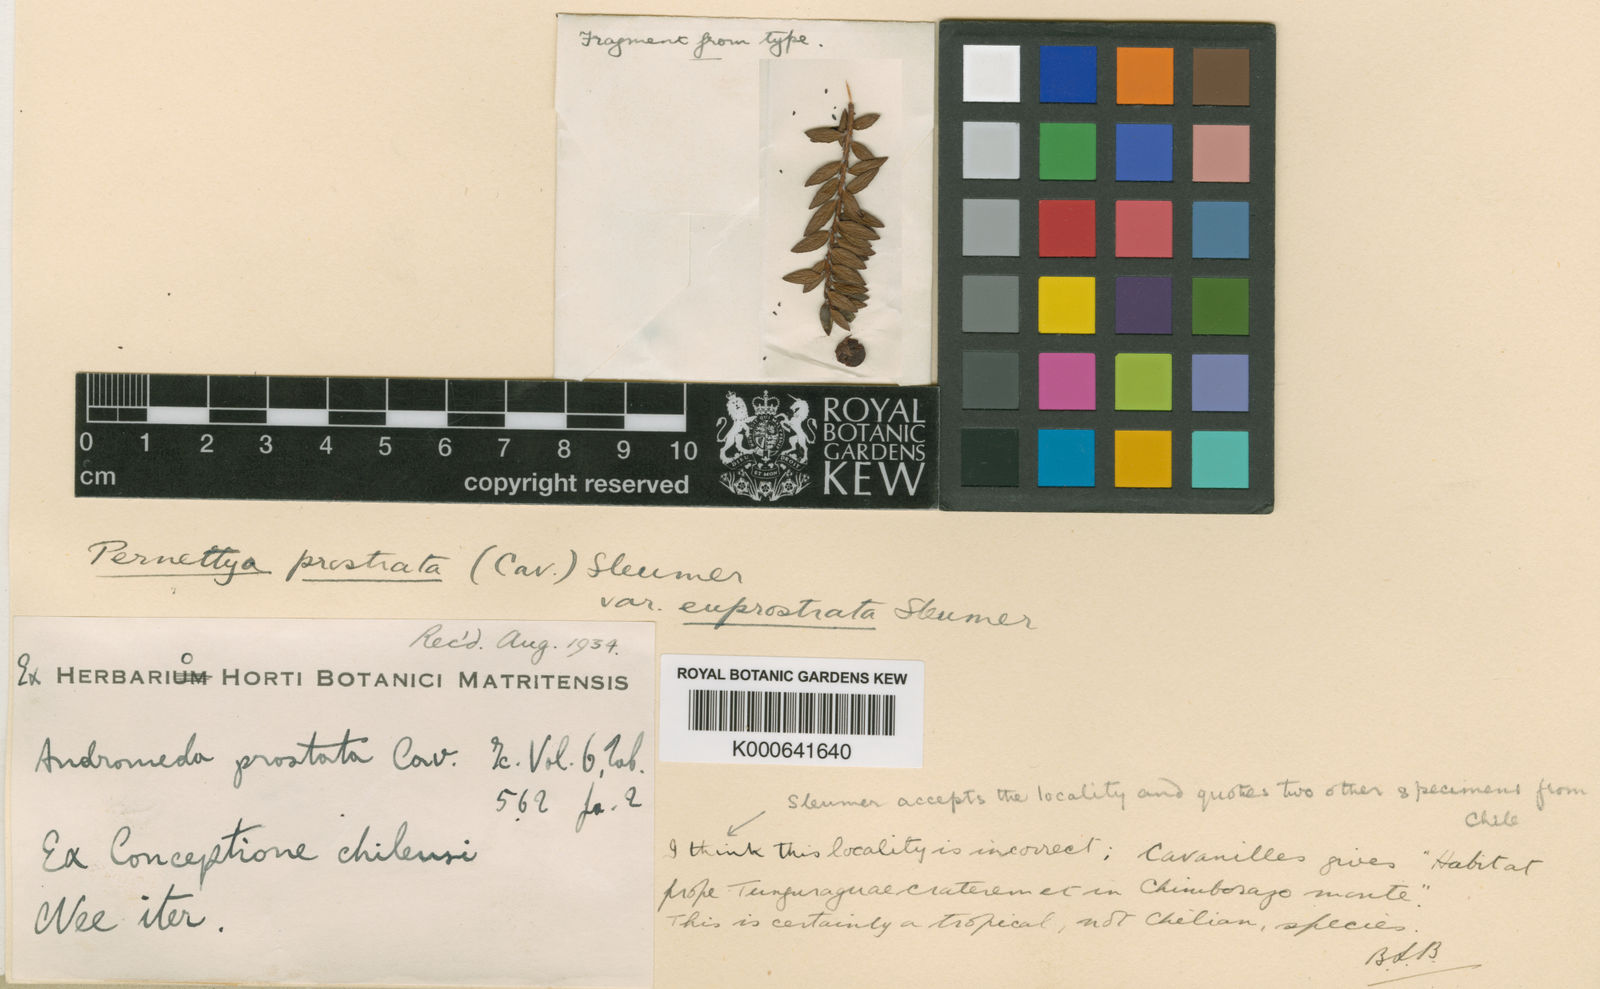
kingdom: Plantae
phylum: Tracheophyta
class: Magnoliopsida
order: Ericales
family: Ericaceae
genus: Gaultheria
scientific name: Gaultheria myrsinoides
